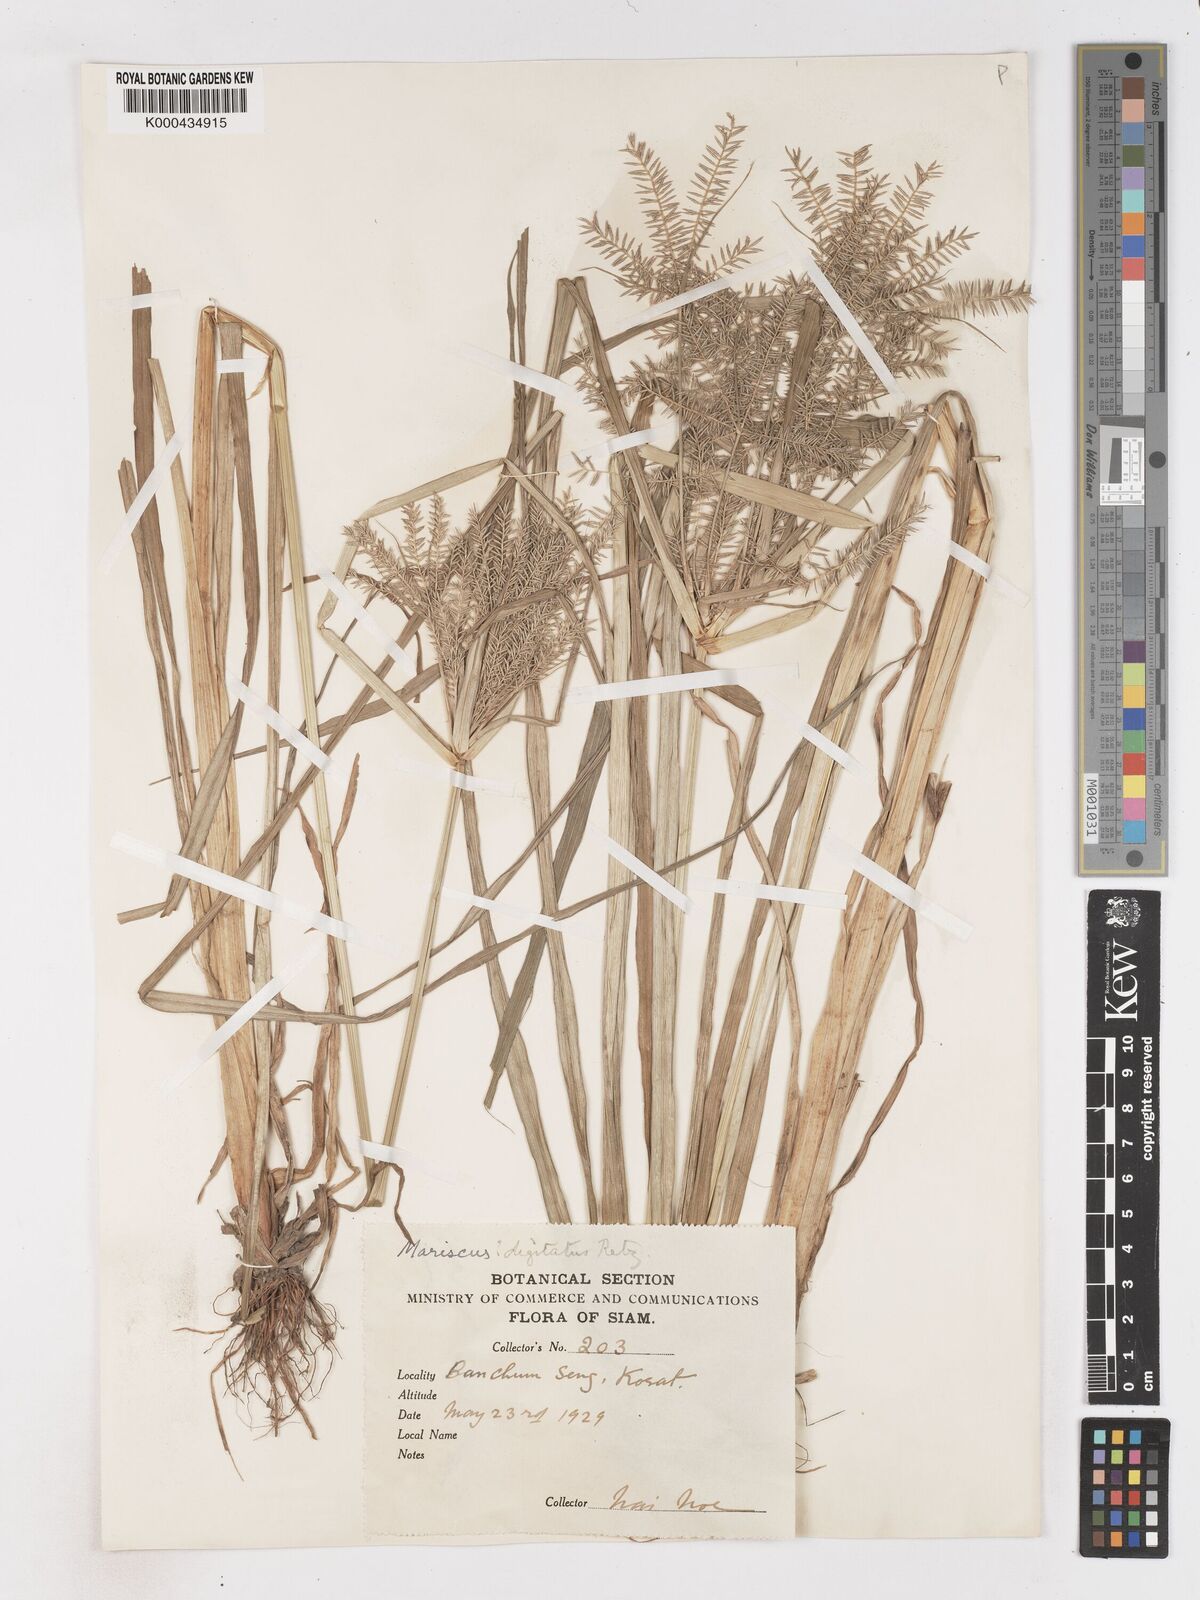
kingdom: Plantae
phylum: Tracheophyta
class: Liliopsida
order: Poales
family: Cyperaceae
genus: Cyperus
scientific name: Cyperus digitatus
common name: Finger flatsedge
